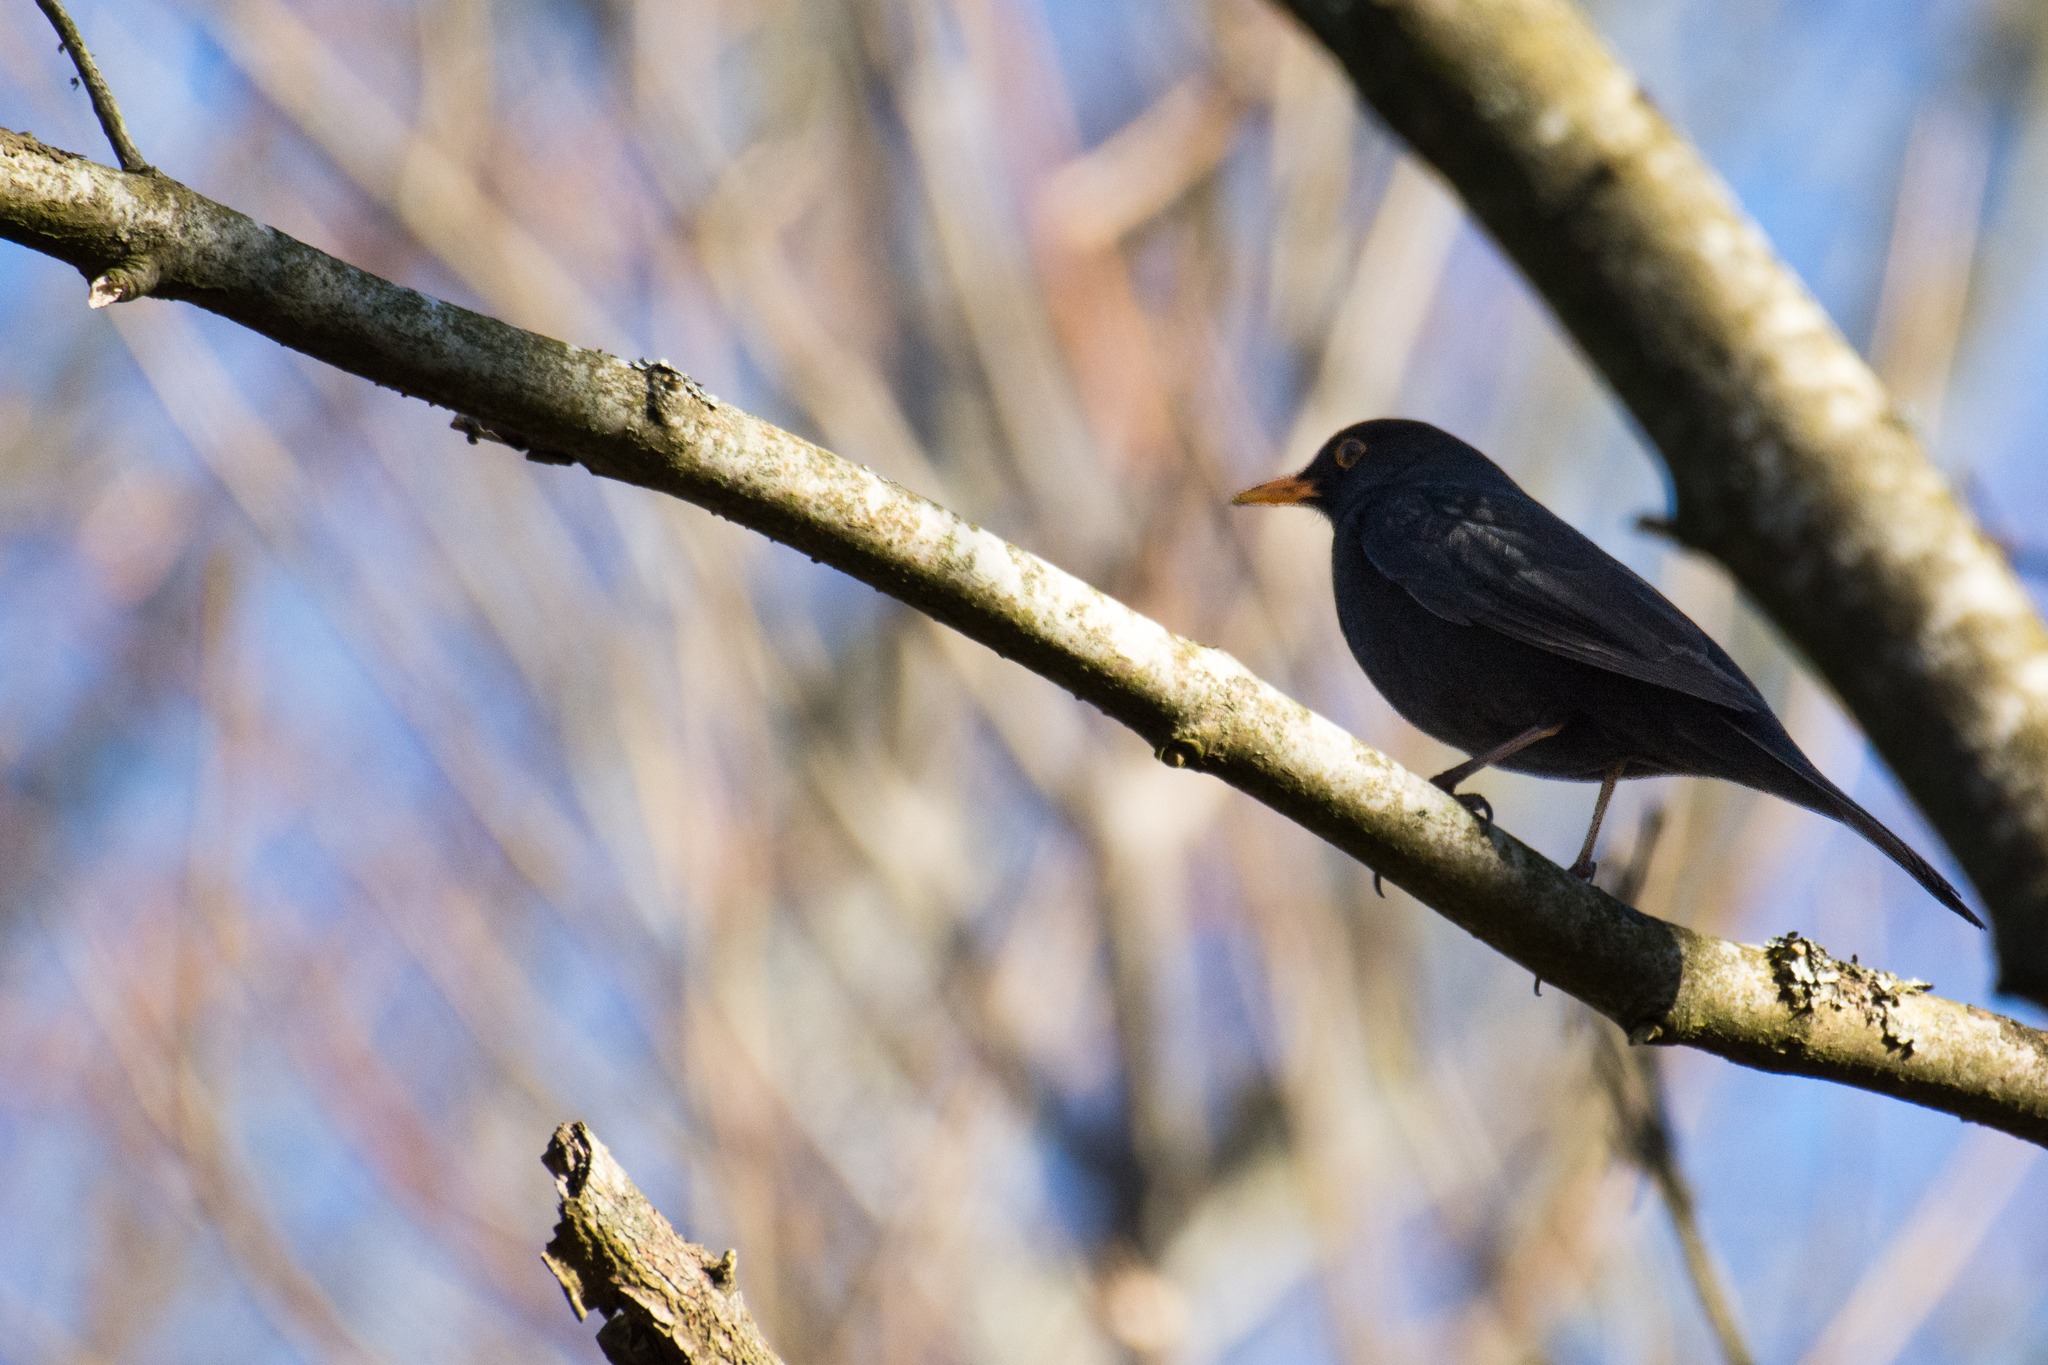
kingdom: Animalia
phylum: Chordata
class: Aves
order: Passeriformes
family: Turdidae
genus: Turdus
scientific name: Turdus merula
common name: Solsort
